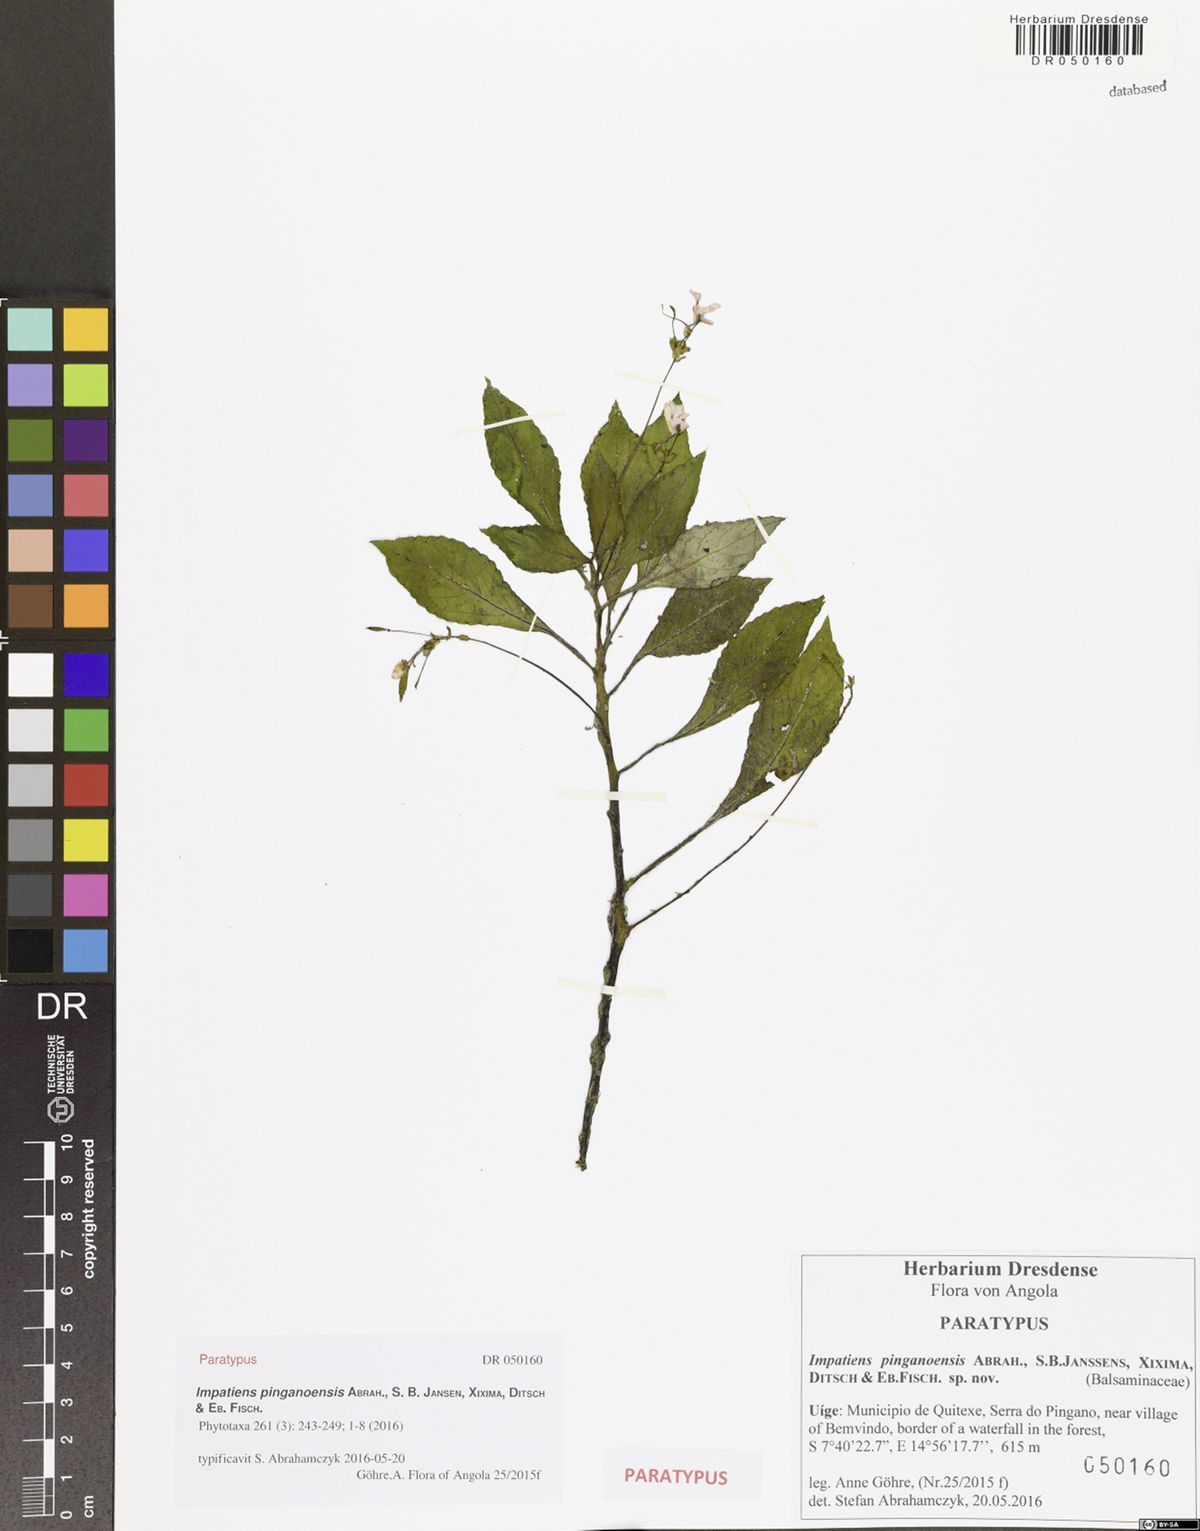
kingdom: Plantae
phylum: Tracheophyta
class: Magnoliopsida
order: Ericales
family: Balsaminaceae
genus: Impatiens
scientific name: Impatiens pinganoensis
